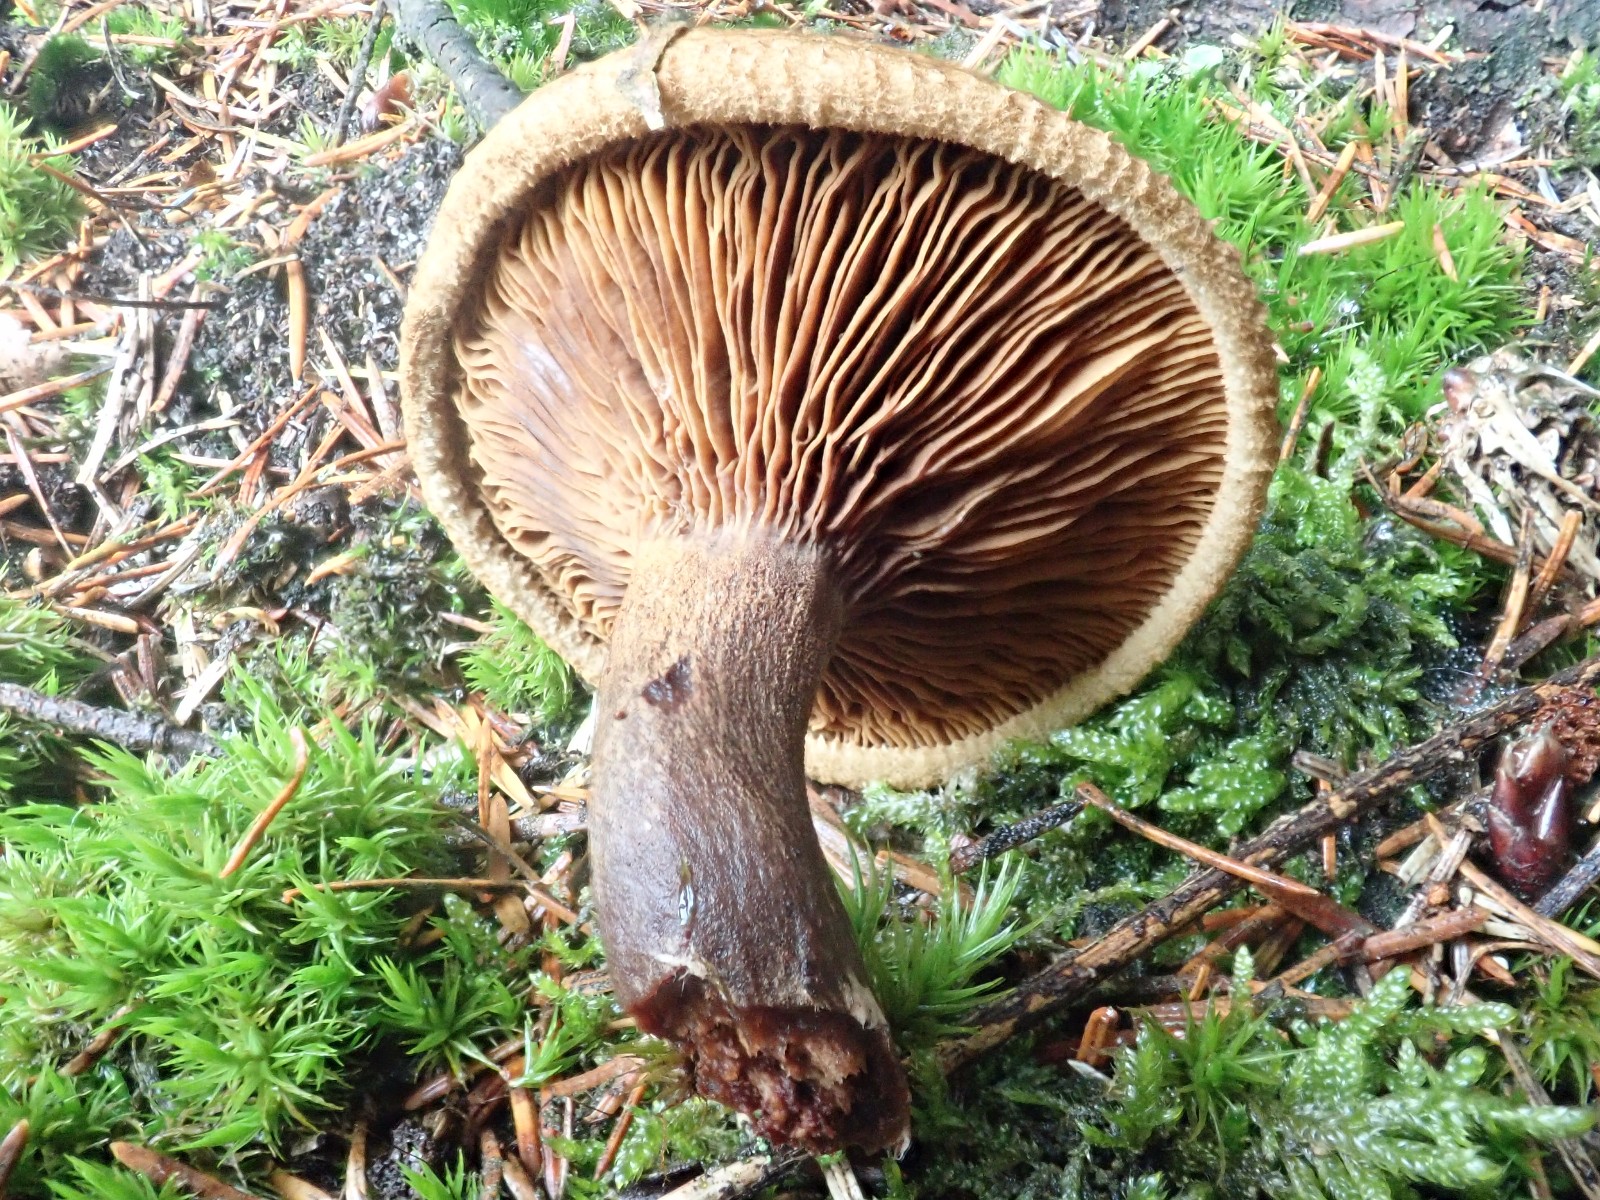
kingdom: Fungi
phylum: Basidiomycota
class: Agaricomycetes
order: Boletales
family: Paxillaceae
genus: Paxillus
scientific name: Paxillus involutus
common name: almindelig netbladhat
